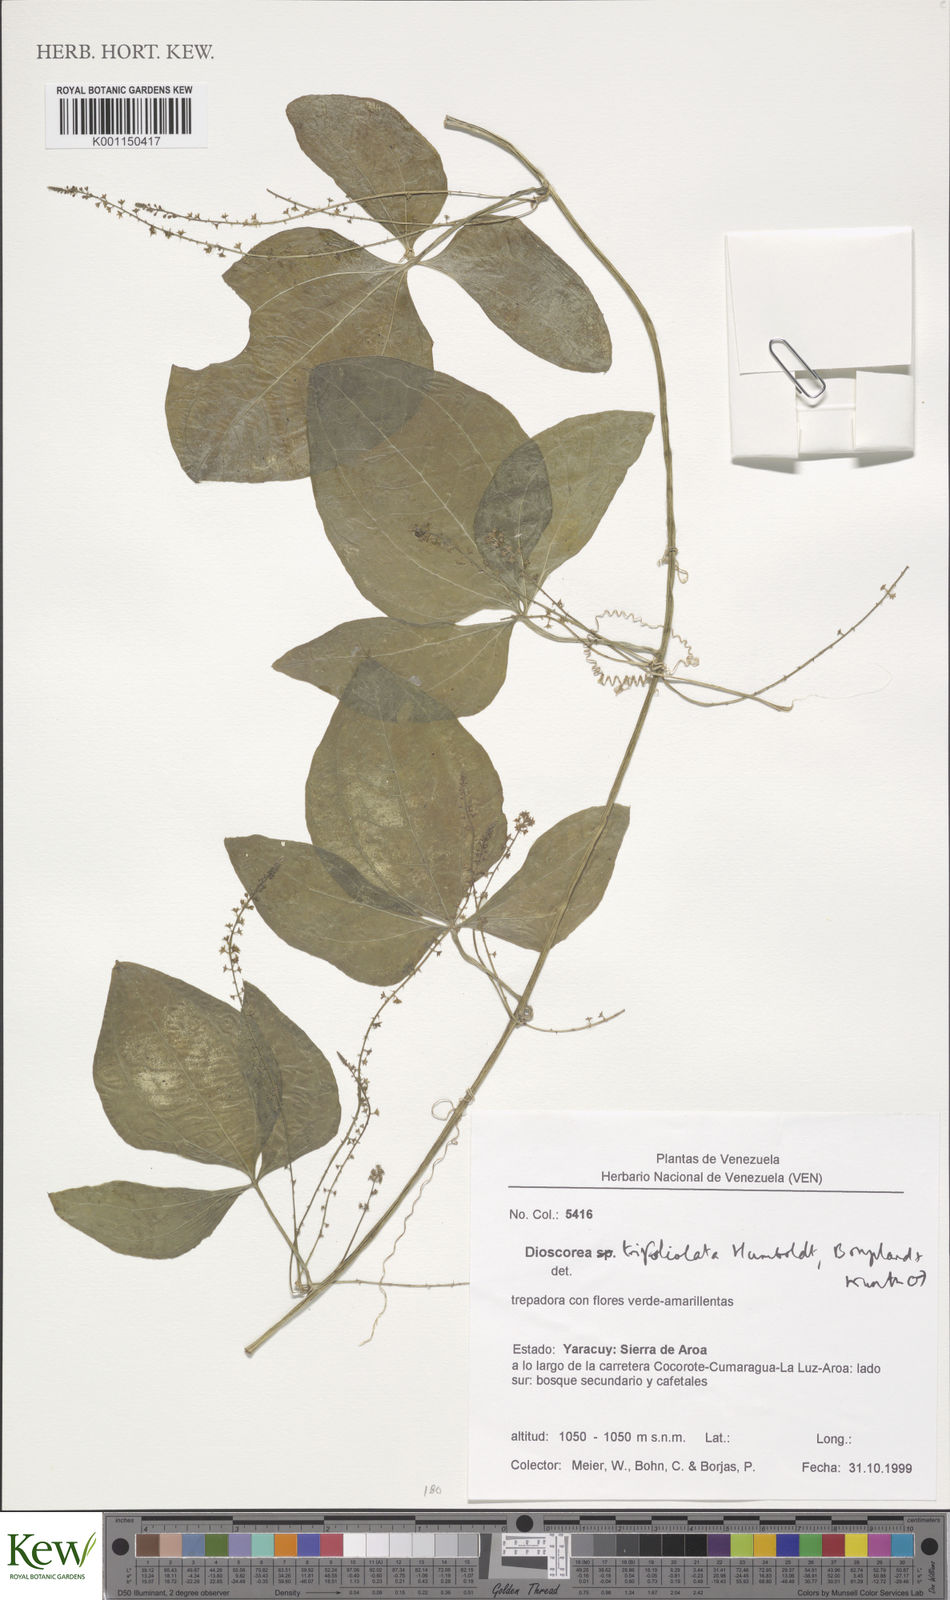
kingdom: Plantae
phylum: Tracheophyta
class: Liliopsida
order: Dioscoreales
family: Dioscoreaceae
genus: Dioscorea
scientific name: Dioscorea trifoliata
